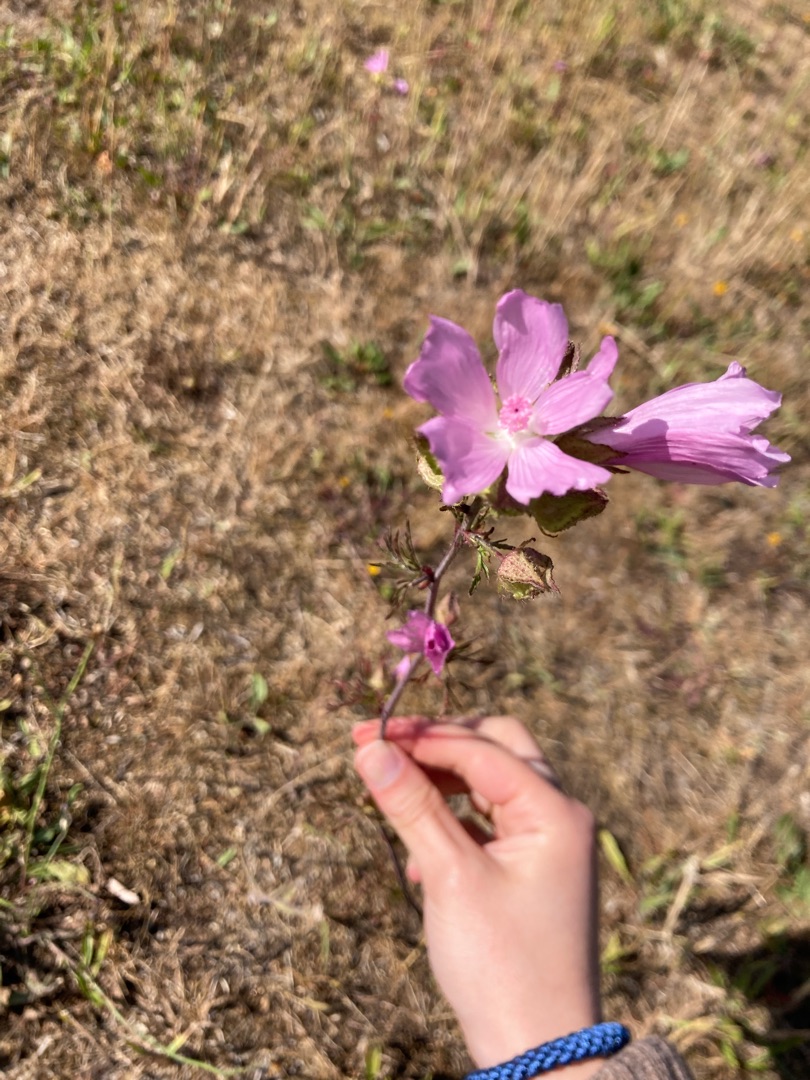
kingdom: Plantae
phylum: Tracheophyta
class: Magnoliopsida
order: Malvales
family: Malvaceae
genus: Malva
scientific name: Malva moschata
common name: Moskus-katost
